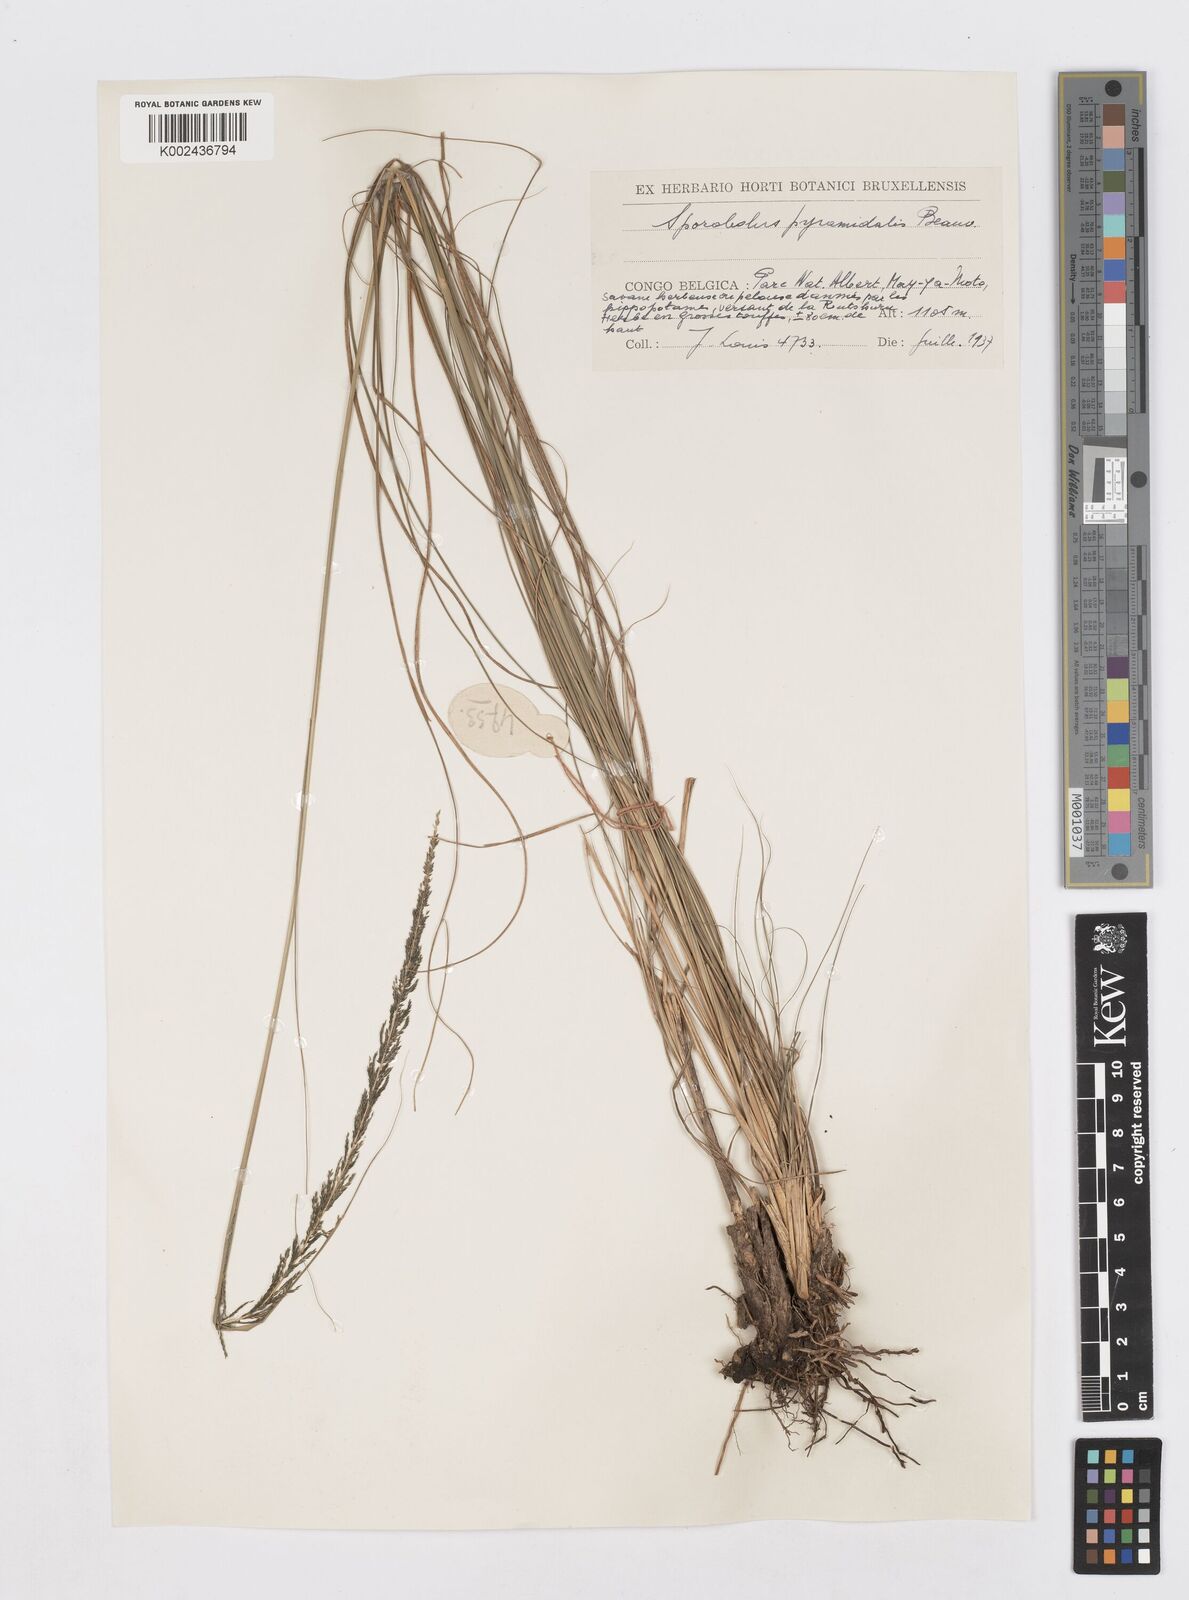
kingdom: Plantae
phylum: Tracheophyta
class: Liliopsida
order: Poales
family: Poaceae
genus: Sporobolus
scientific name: Sporobolus pyramidalis
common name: West indian dropseed
